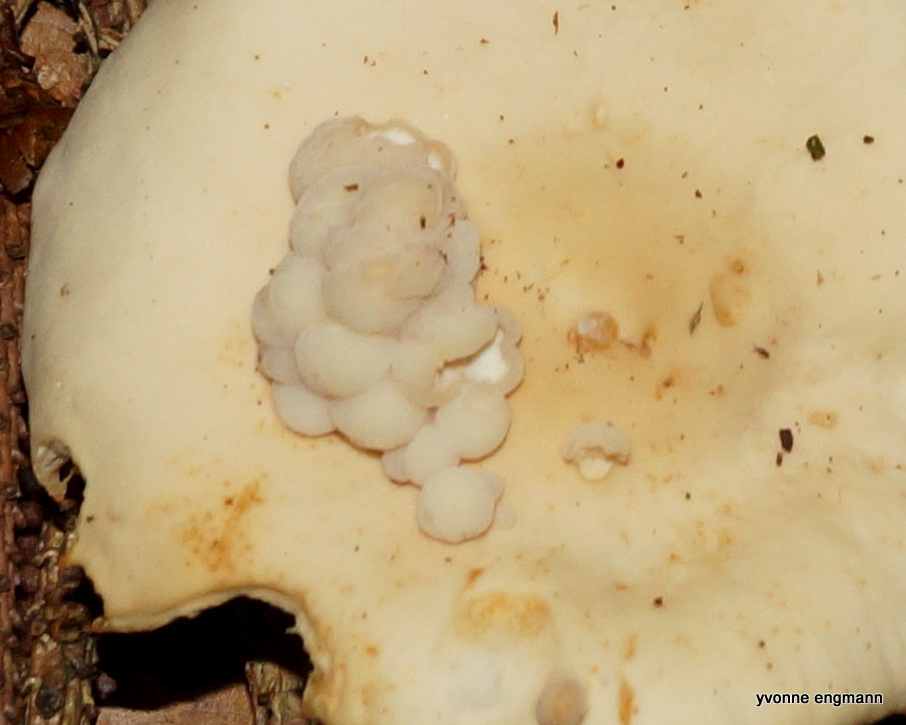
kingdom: Fungi
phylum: Basidiomycota
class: Tremellomycetes
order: Tremellales
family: Syzygosporaceae
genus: Syzygospora
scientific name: Syzygospora
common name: snyltehjerne
